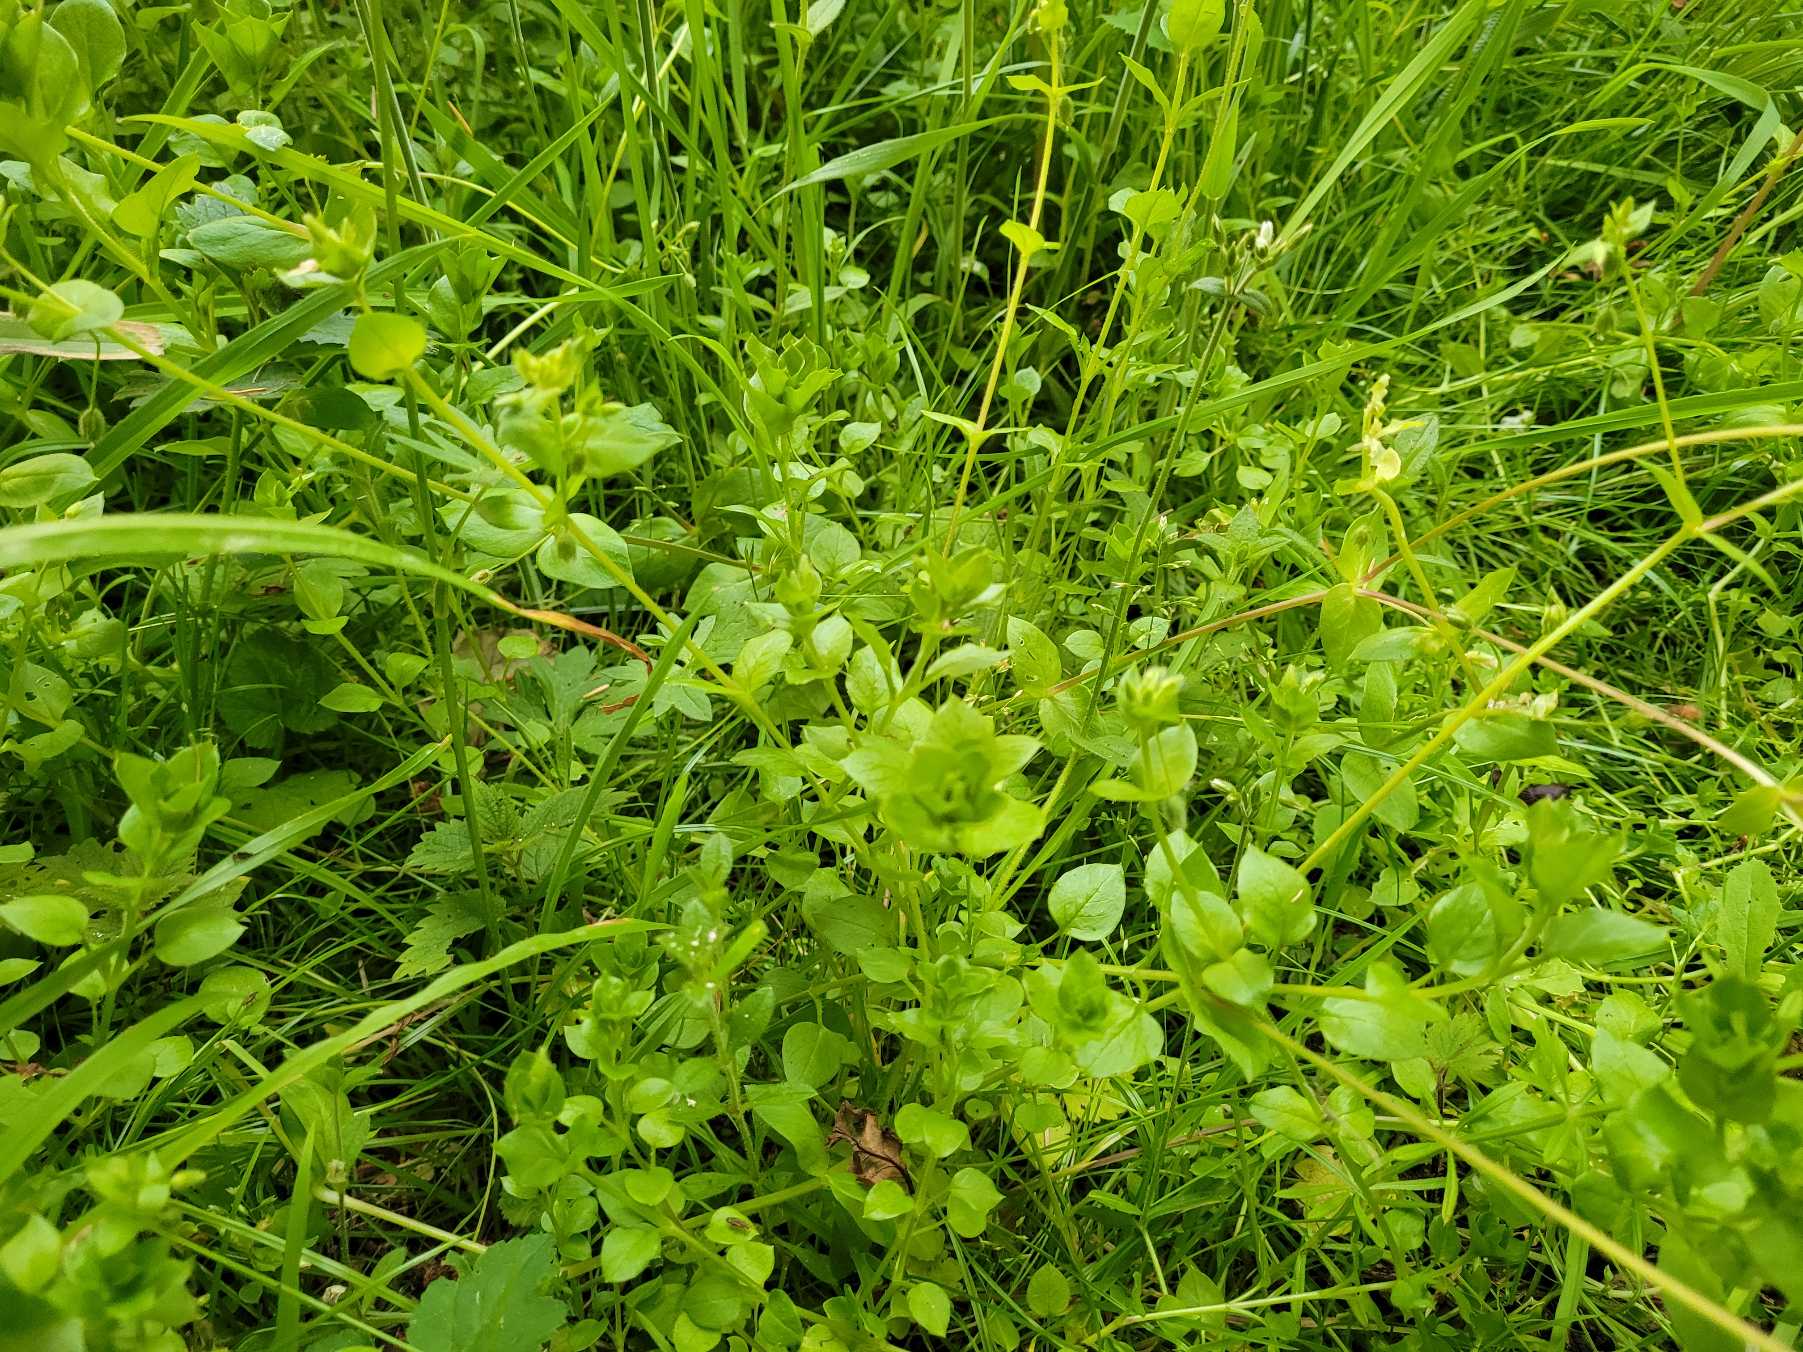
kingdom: Plantae
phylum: Tracheophyta
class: Magnoliopsida
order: Caryophyllales
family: Caryophyllaceae
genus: Stellaria
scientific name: Stellaria media
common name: Almindelig fuglegræs
